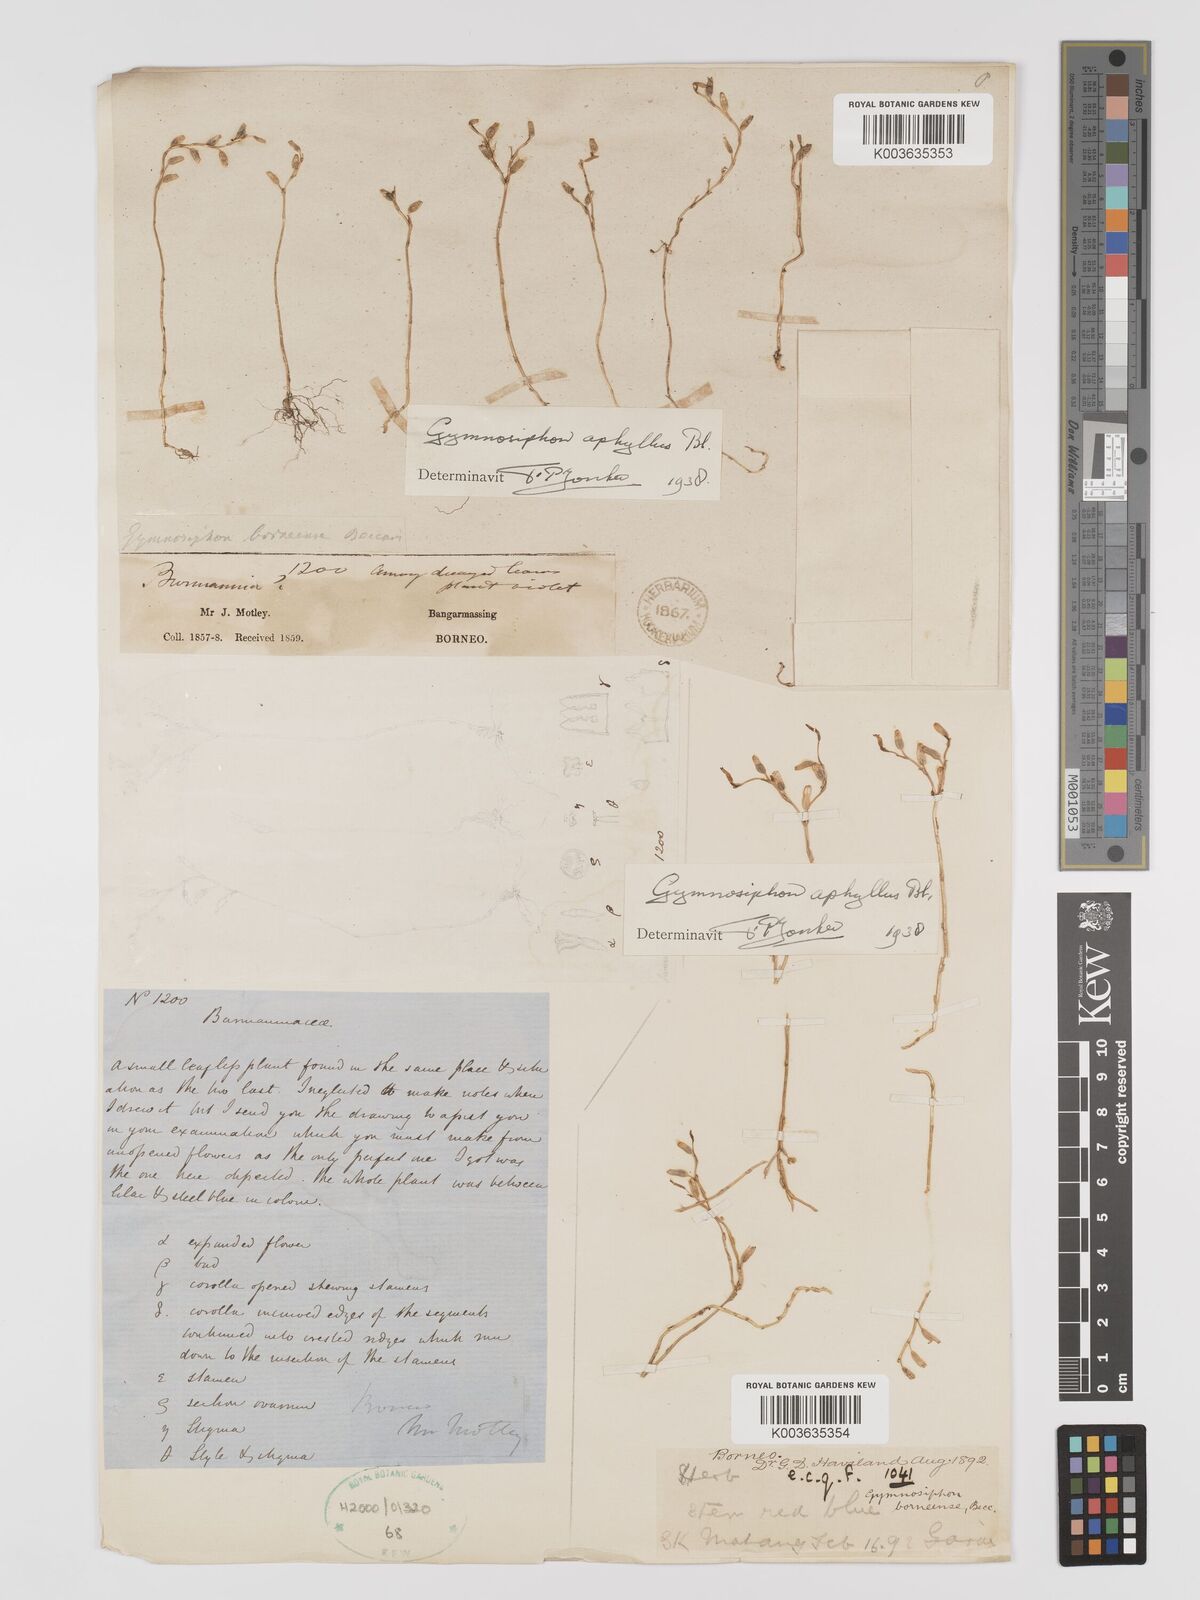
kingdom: Plantae
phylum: Tracheophyta
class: Liliopsida
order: Dioscoreales
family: Burmanniaceae
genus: Gymnosiphon
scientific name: Gymnosiphon aphyllus
